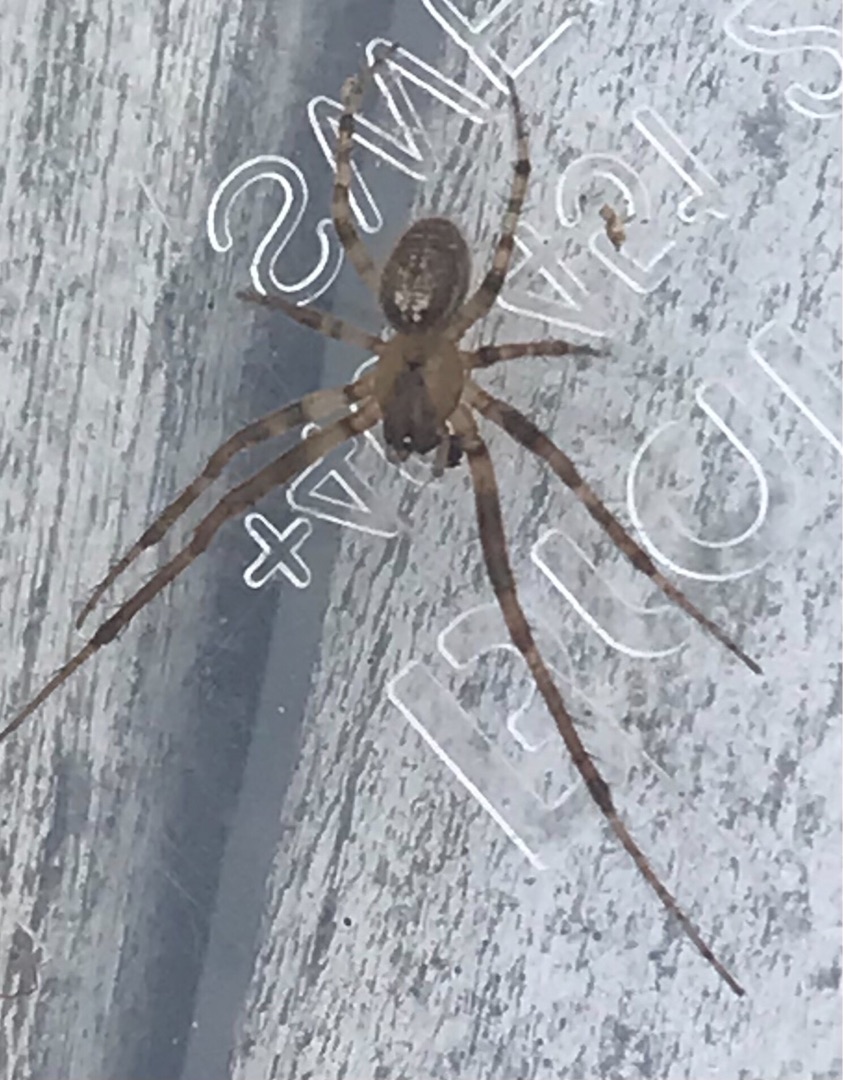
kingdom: Animalia
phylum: Arthropoda
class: Arachnida
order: Araneae
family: Araneidae
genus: Zygiella
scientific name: Zygiella x-notata
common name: Grå sektoredderkop
